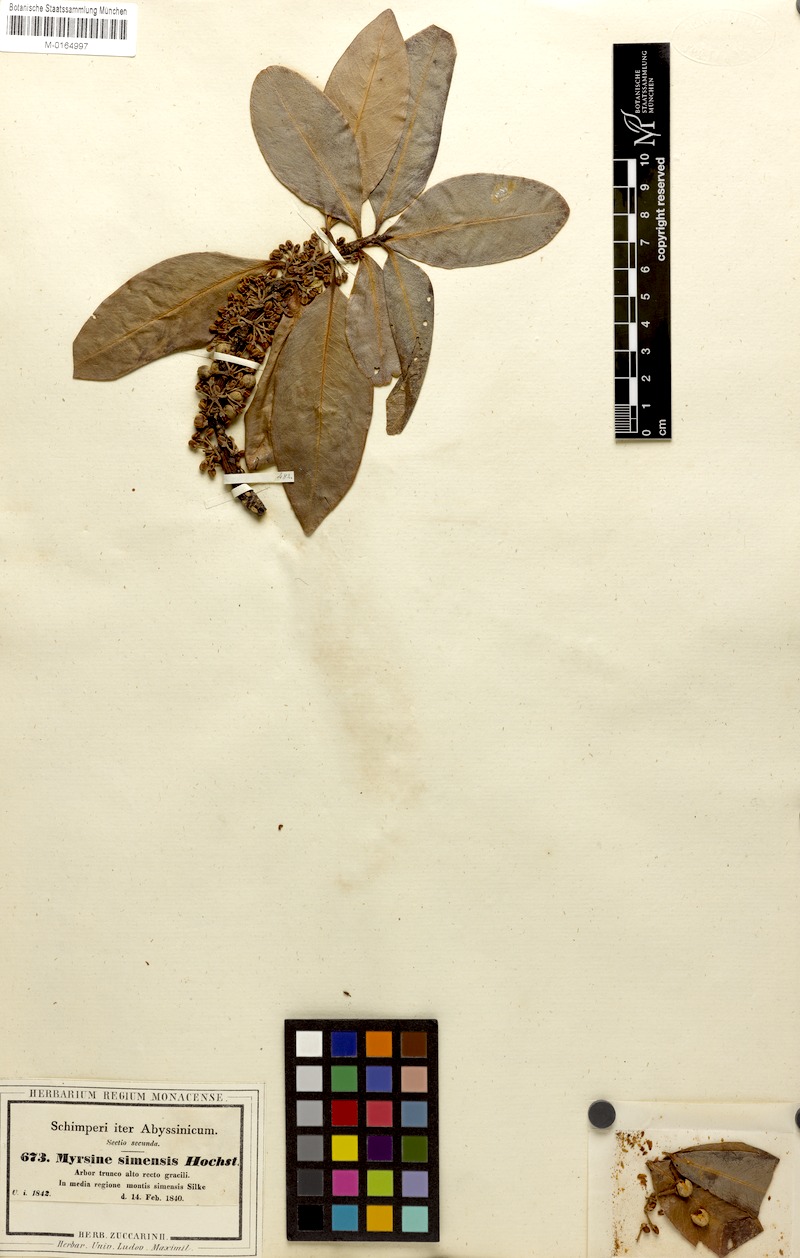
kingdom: Plantae
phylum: Tracheophyta
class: Magnoliopsida
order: Ericales
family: Primulaceae
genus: Myrsine
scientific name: Myrsine melanophloeos
